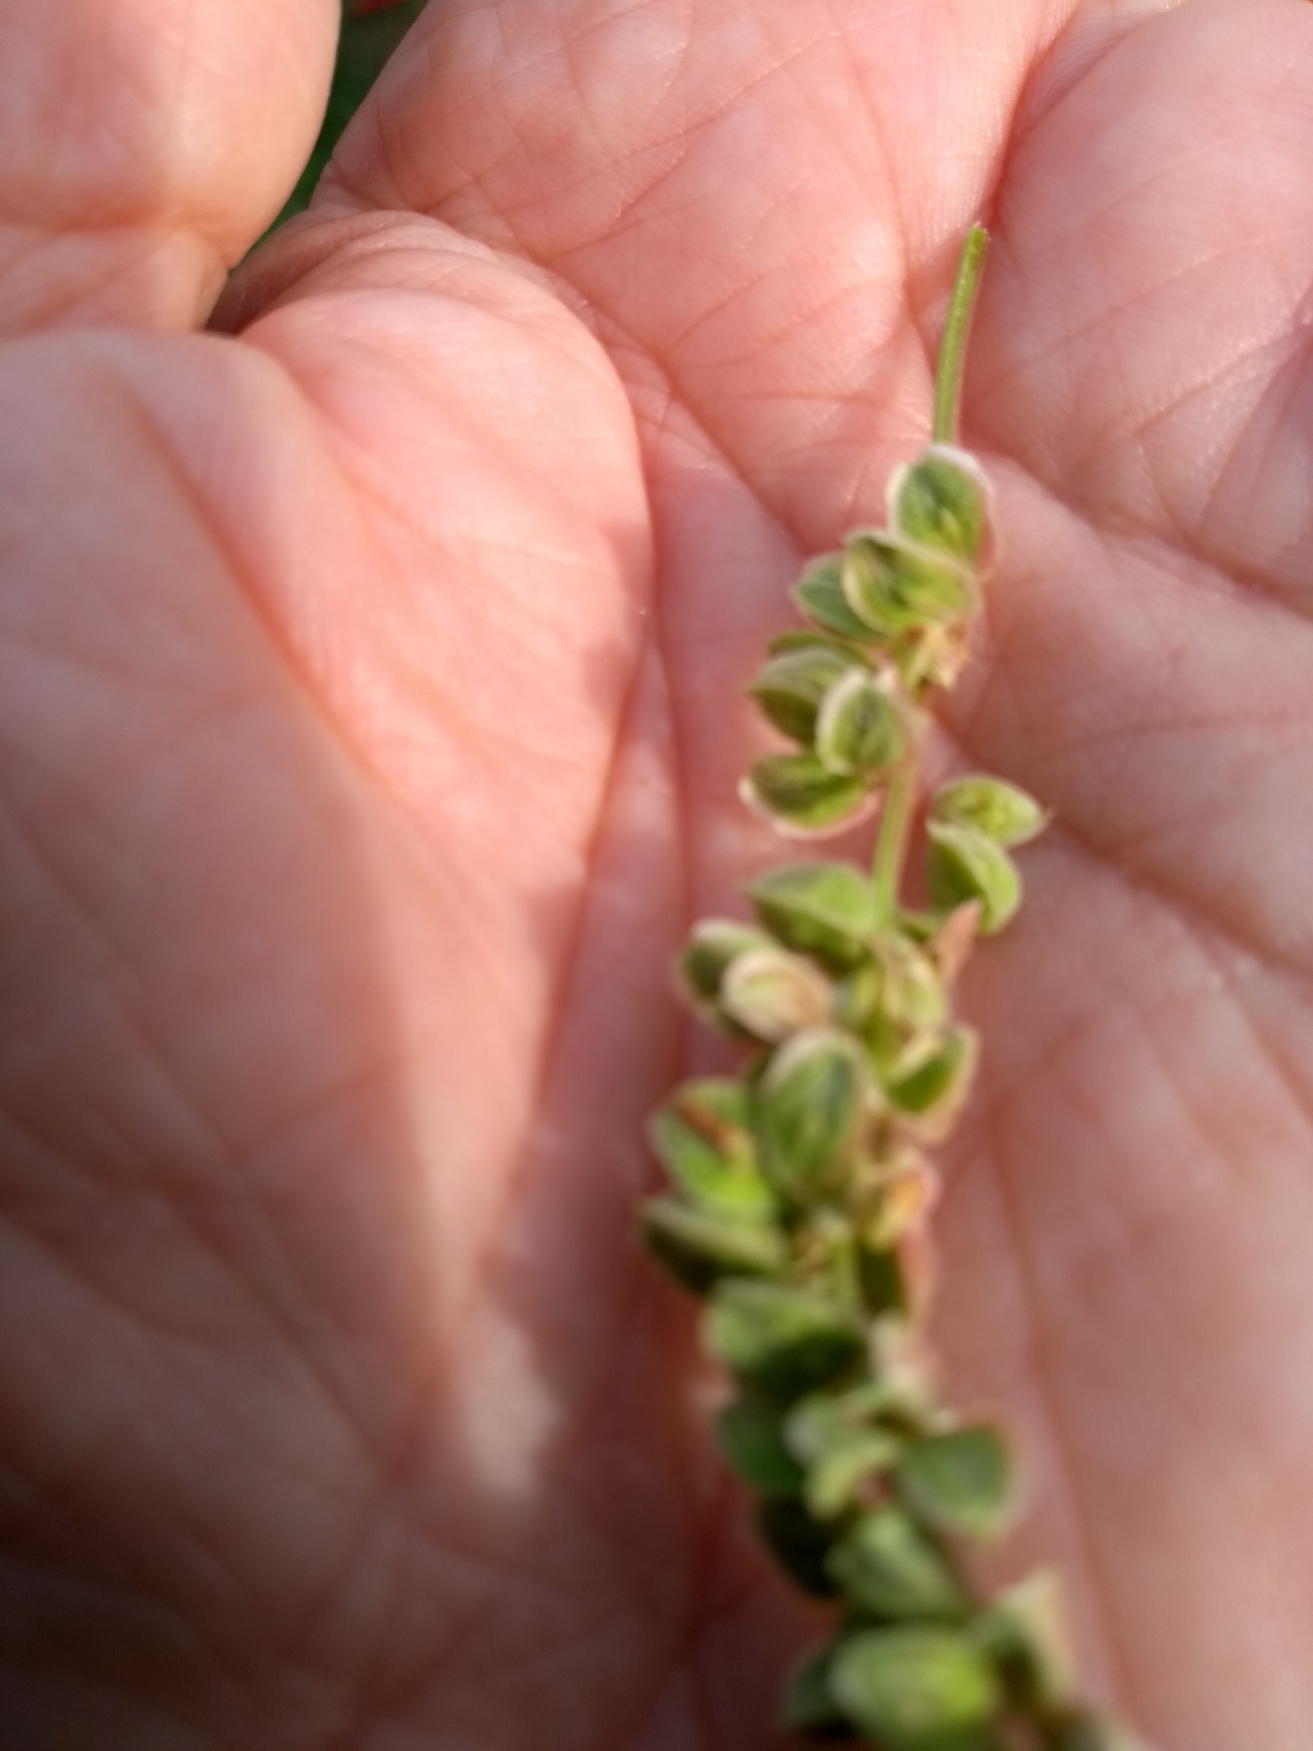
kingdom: Plantae
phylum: Tracheophyta
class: Magnoliopsida
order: Caryophyllales
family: Polygonaceae
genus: Fallopia
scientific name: Fallopia convolvulus
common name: Snerle-pileurt
